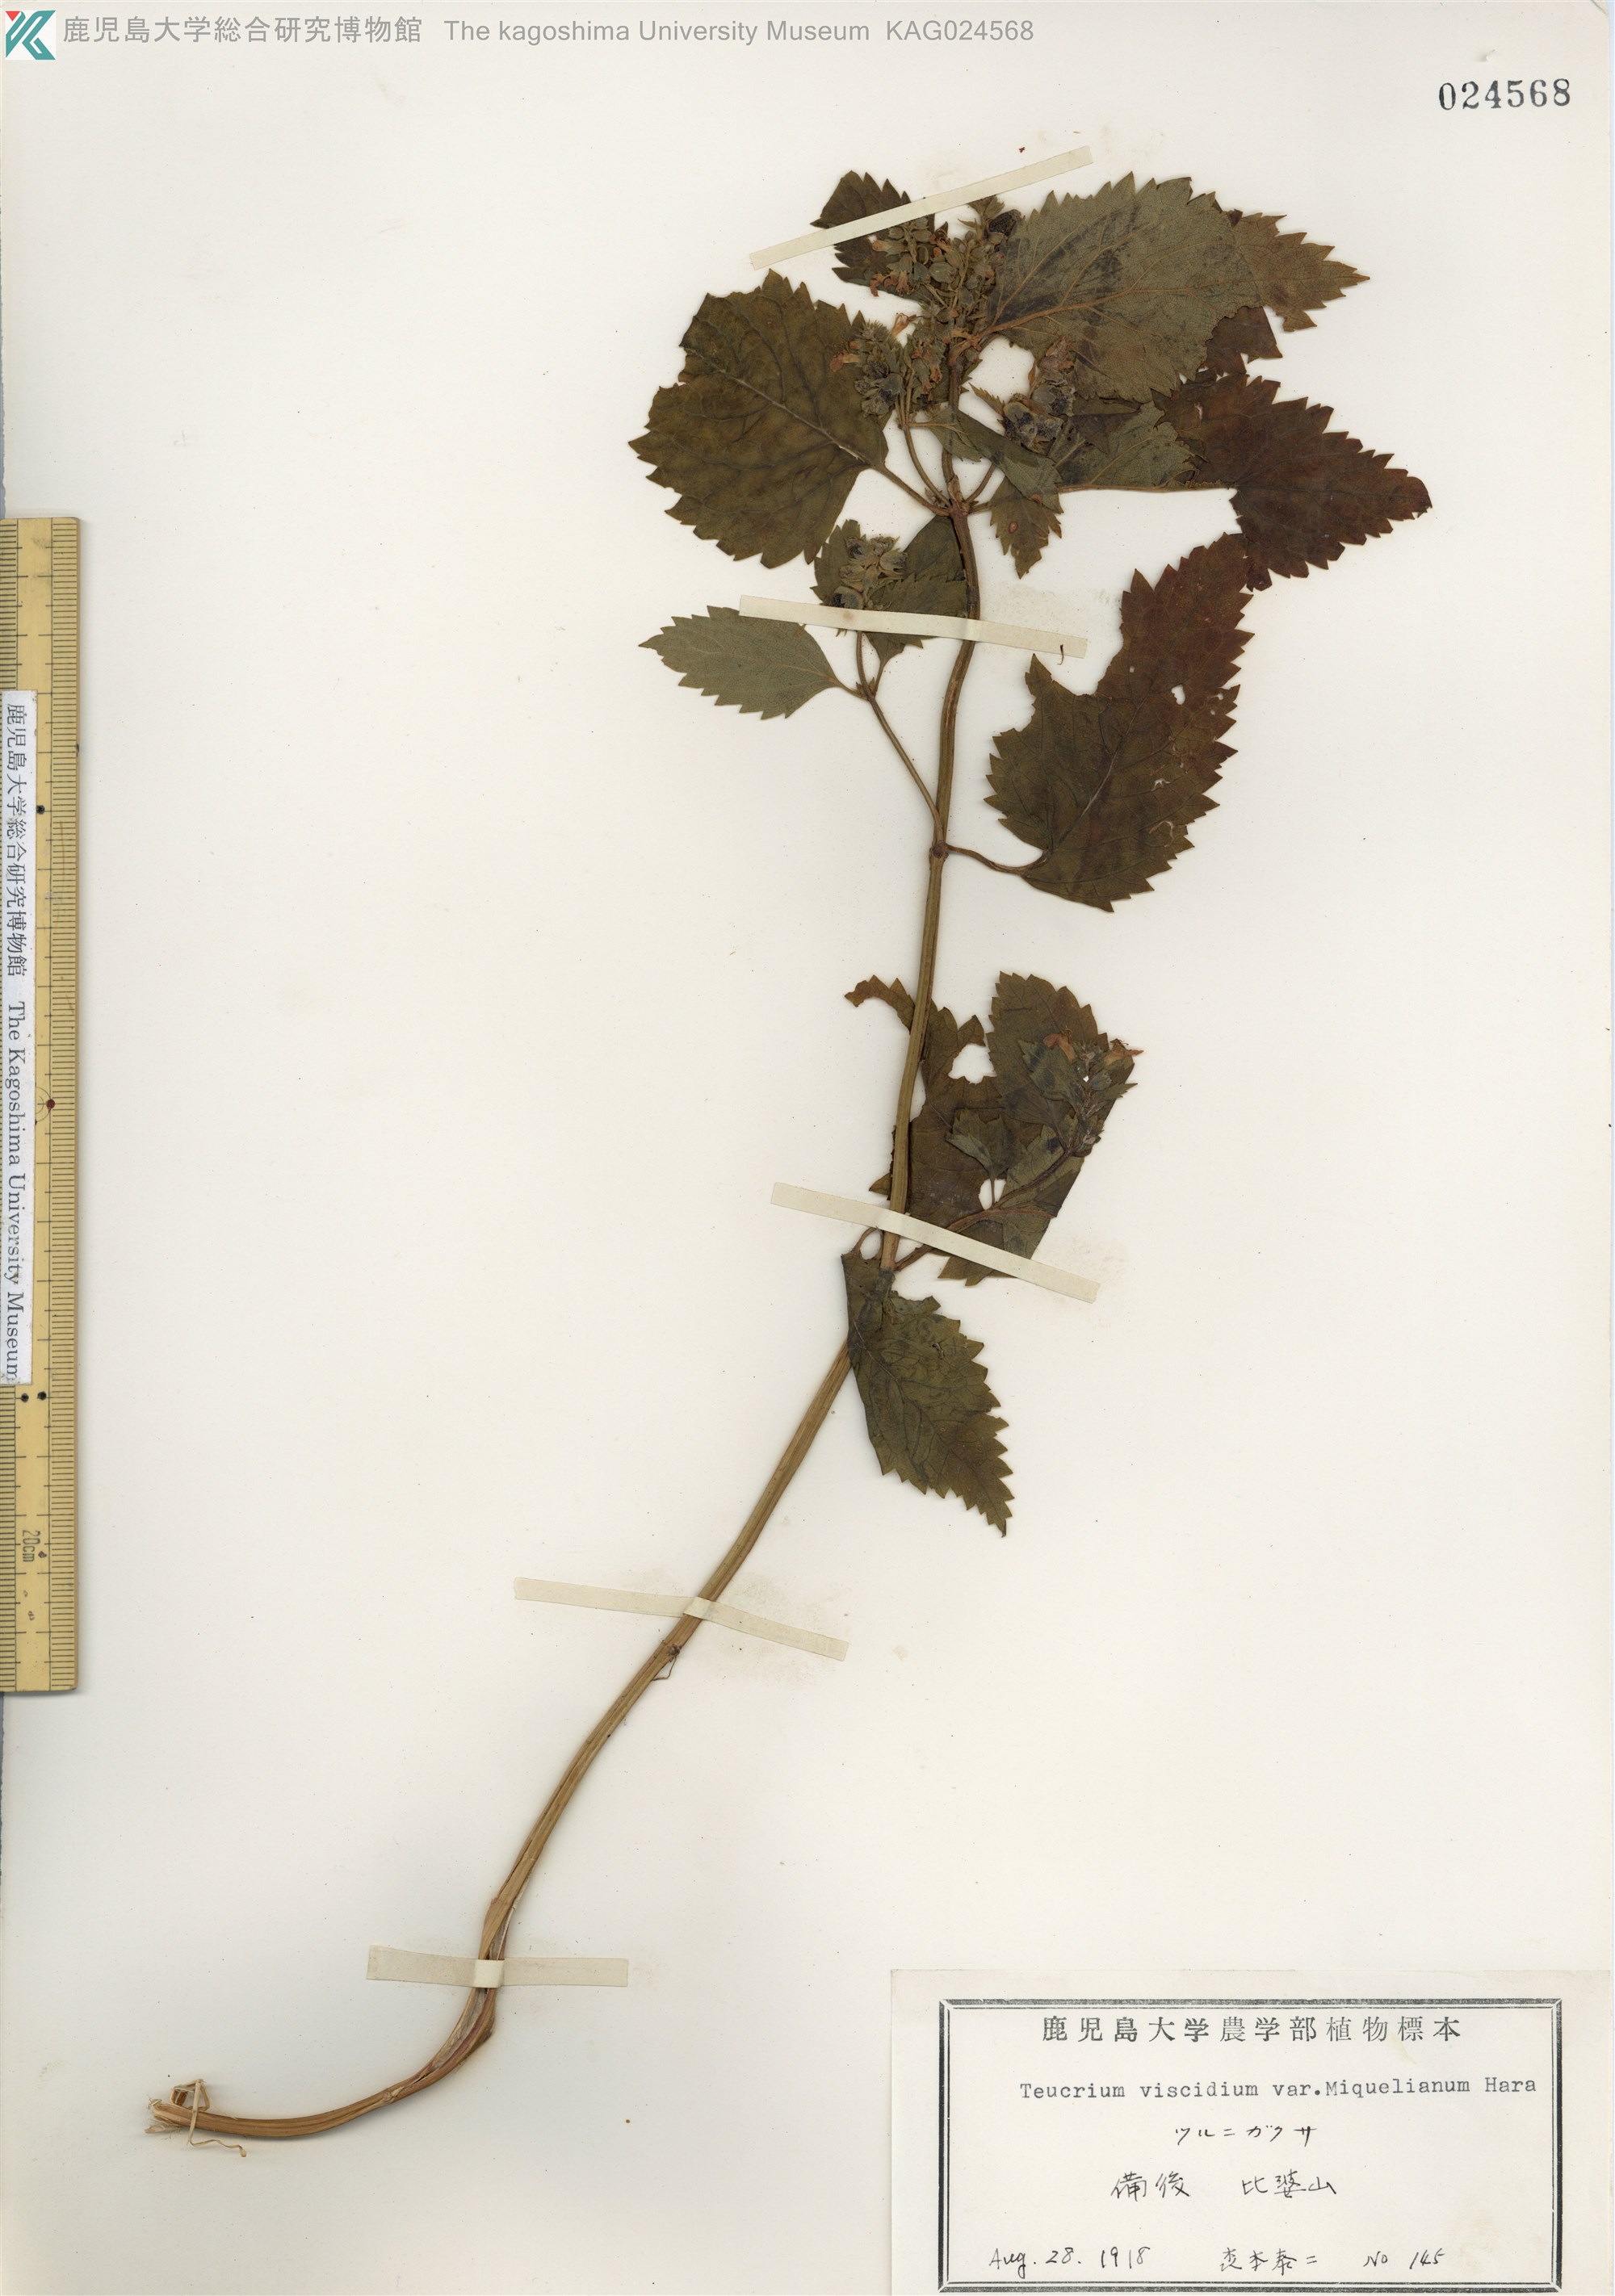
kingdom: Plantae
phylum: Tracheophyta
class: Magnoliopsida
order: Lamiales
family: Lamiaceae
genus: Teucrium
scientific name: Teucrium viscidum
